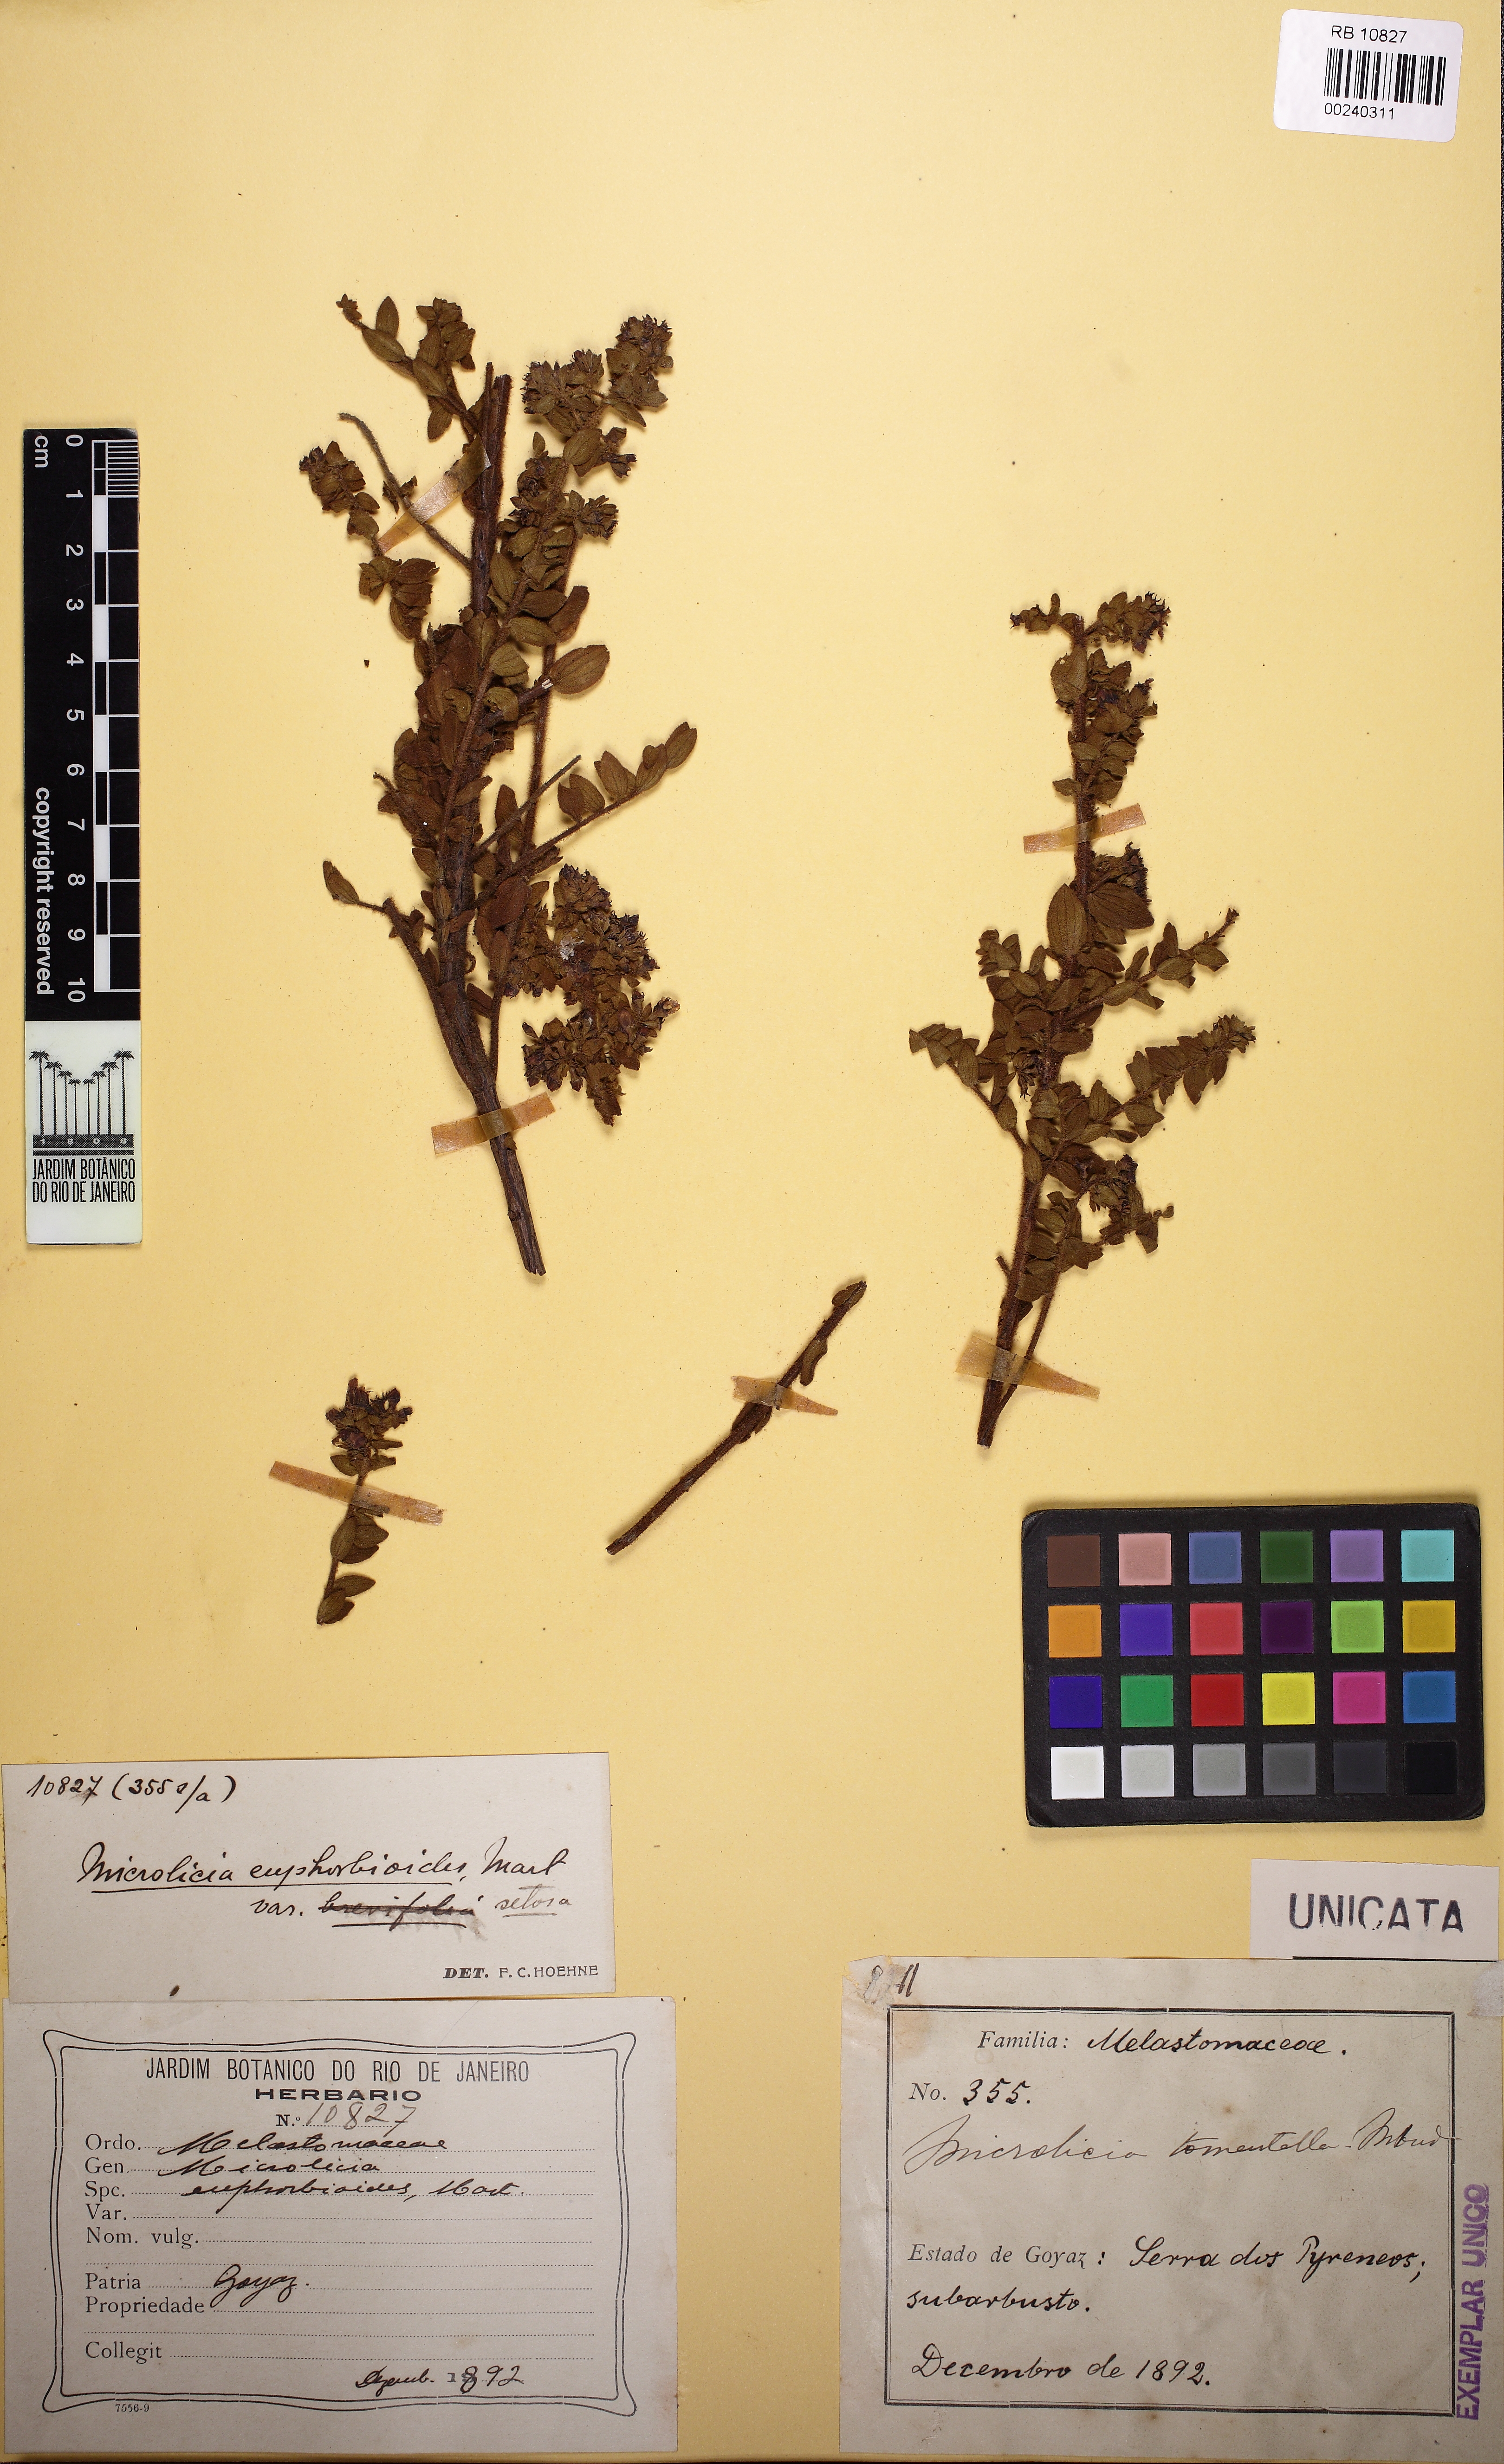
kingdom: Plantae
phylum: Tracheophyta
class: Magnoliopsida
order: Myrtales
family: Melastomataceae
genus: Microlicia
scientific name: Microlicia helvola
